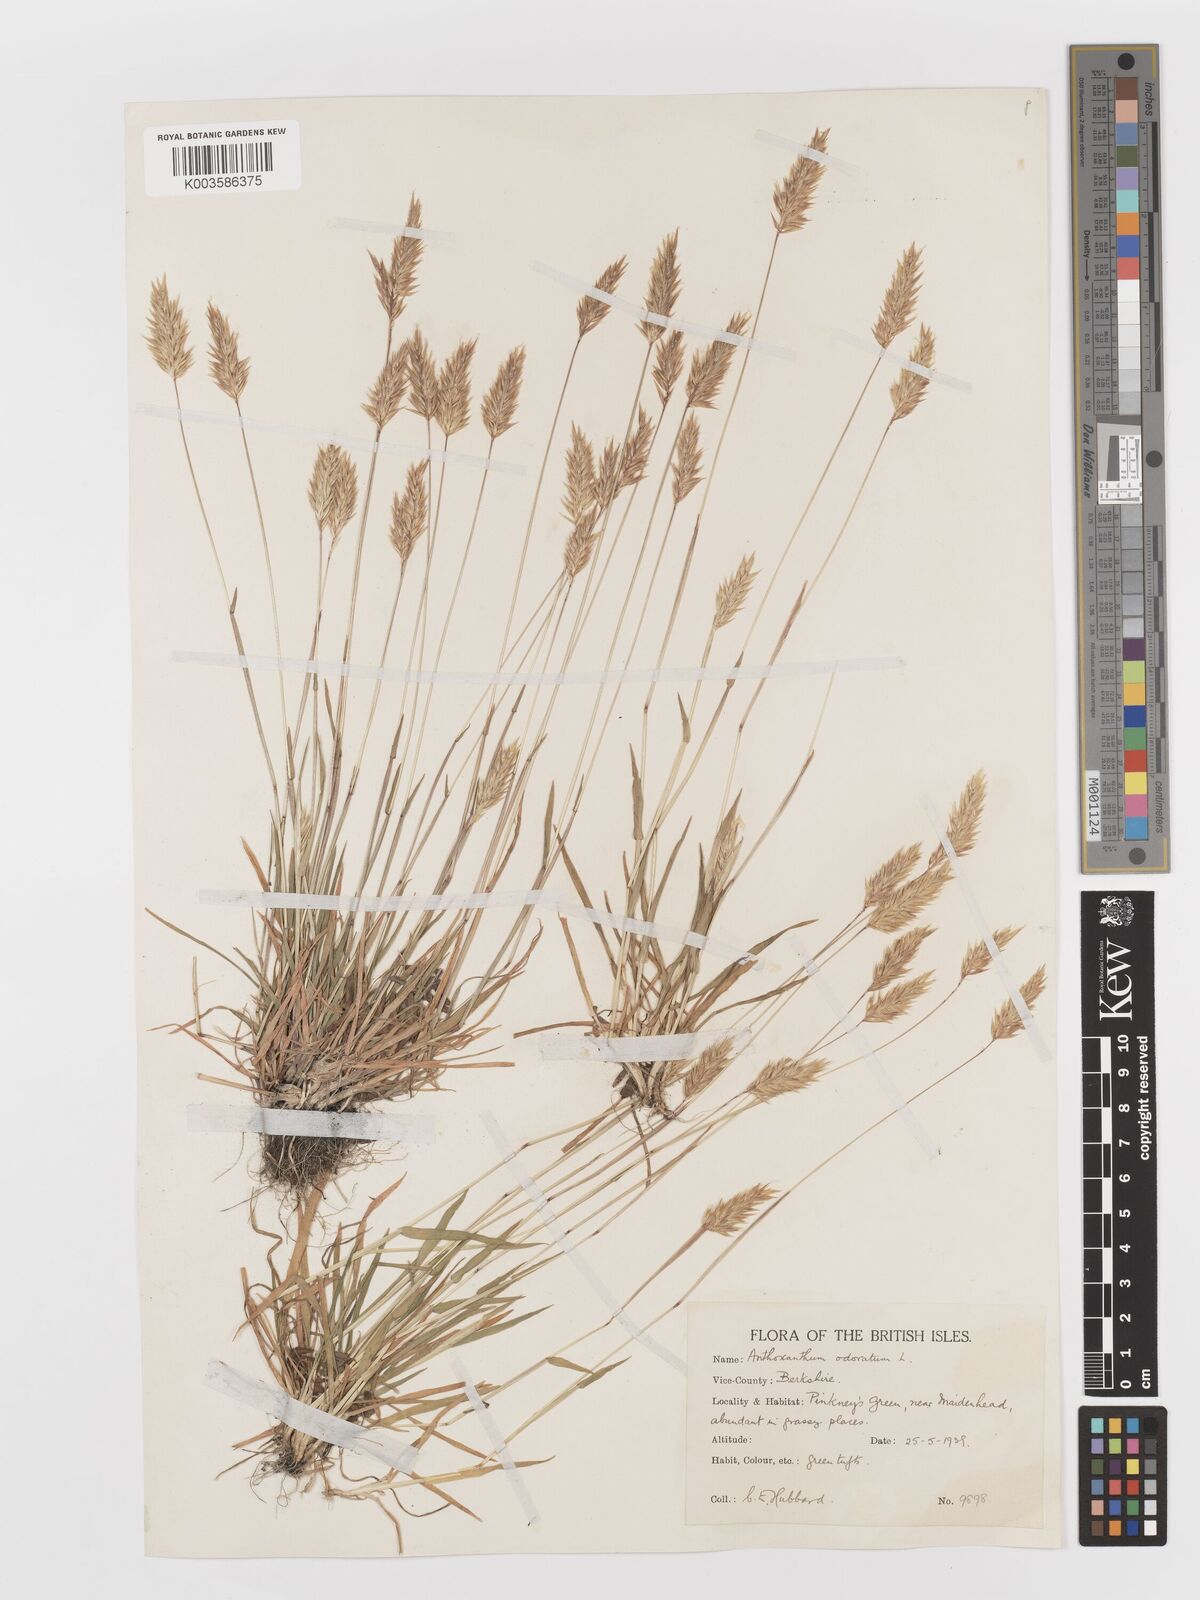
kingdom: Plantae
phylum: Tracheophyta
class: Liliopsida
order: Poales
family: Poaceae
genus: Anthoxanthum
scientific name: Anthoxanthum odoratum
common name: Sweet vernalgrass
